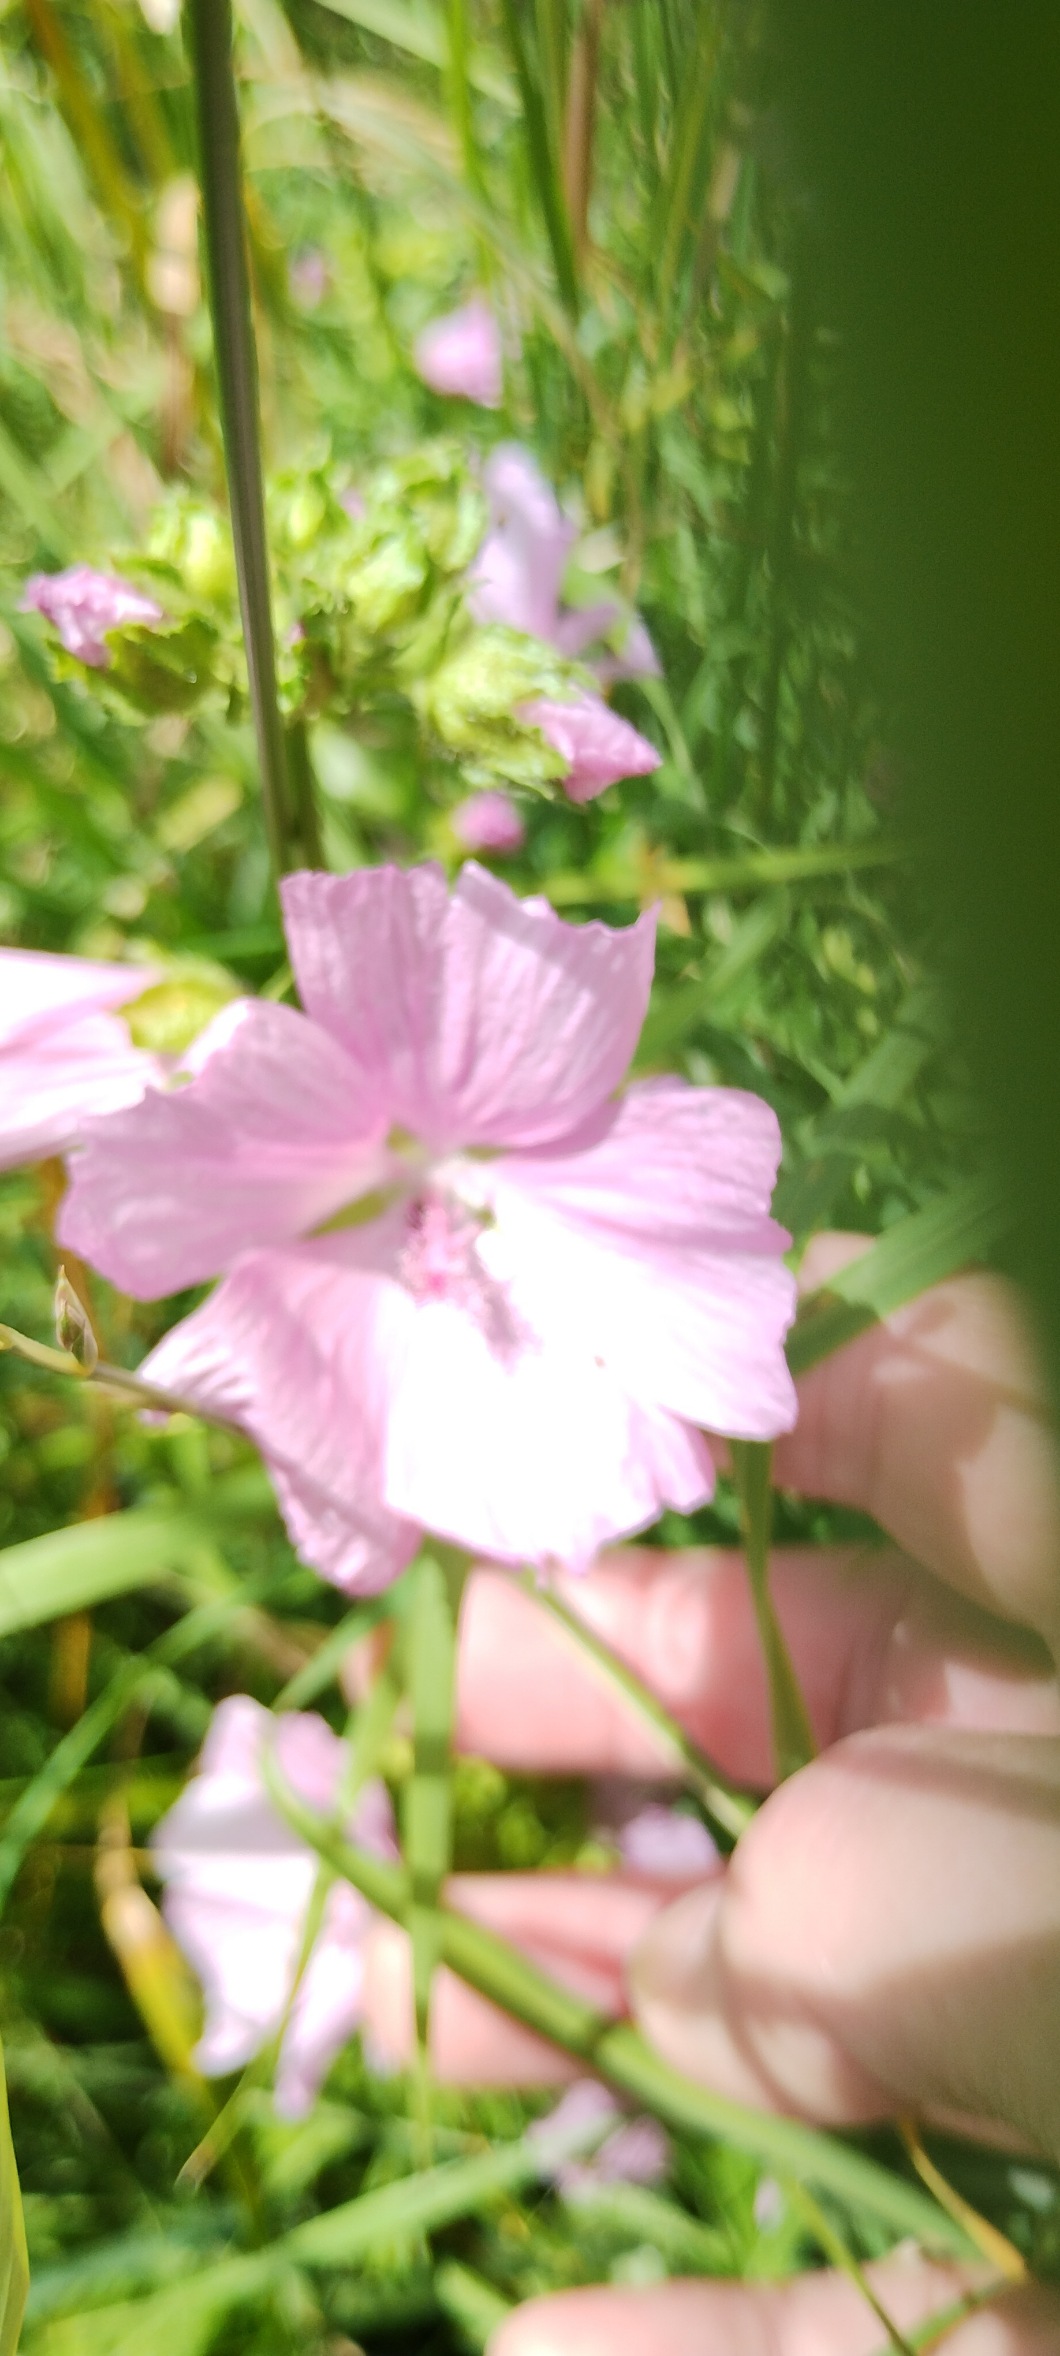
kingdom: Plantae
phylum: Tracheophyta
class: Magnoliopsida
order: Malvales
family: Malvaceae
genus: Malva
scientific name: Malva moschata
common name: Moskus-katost
